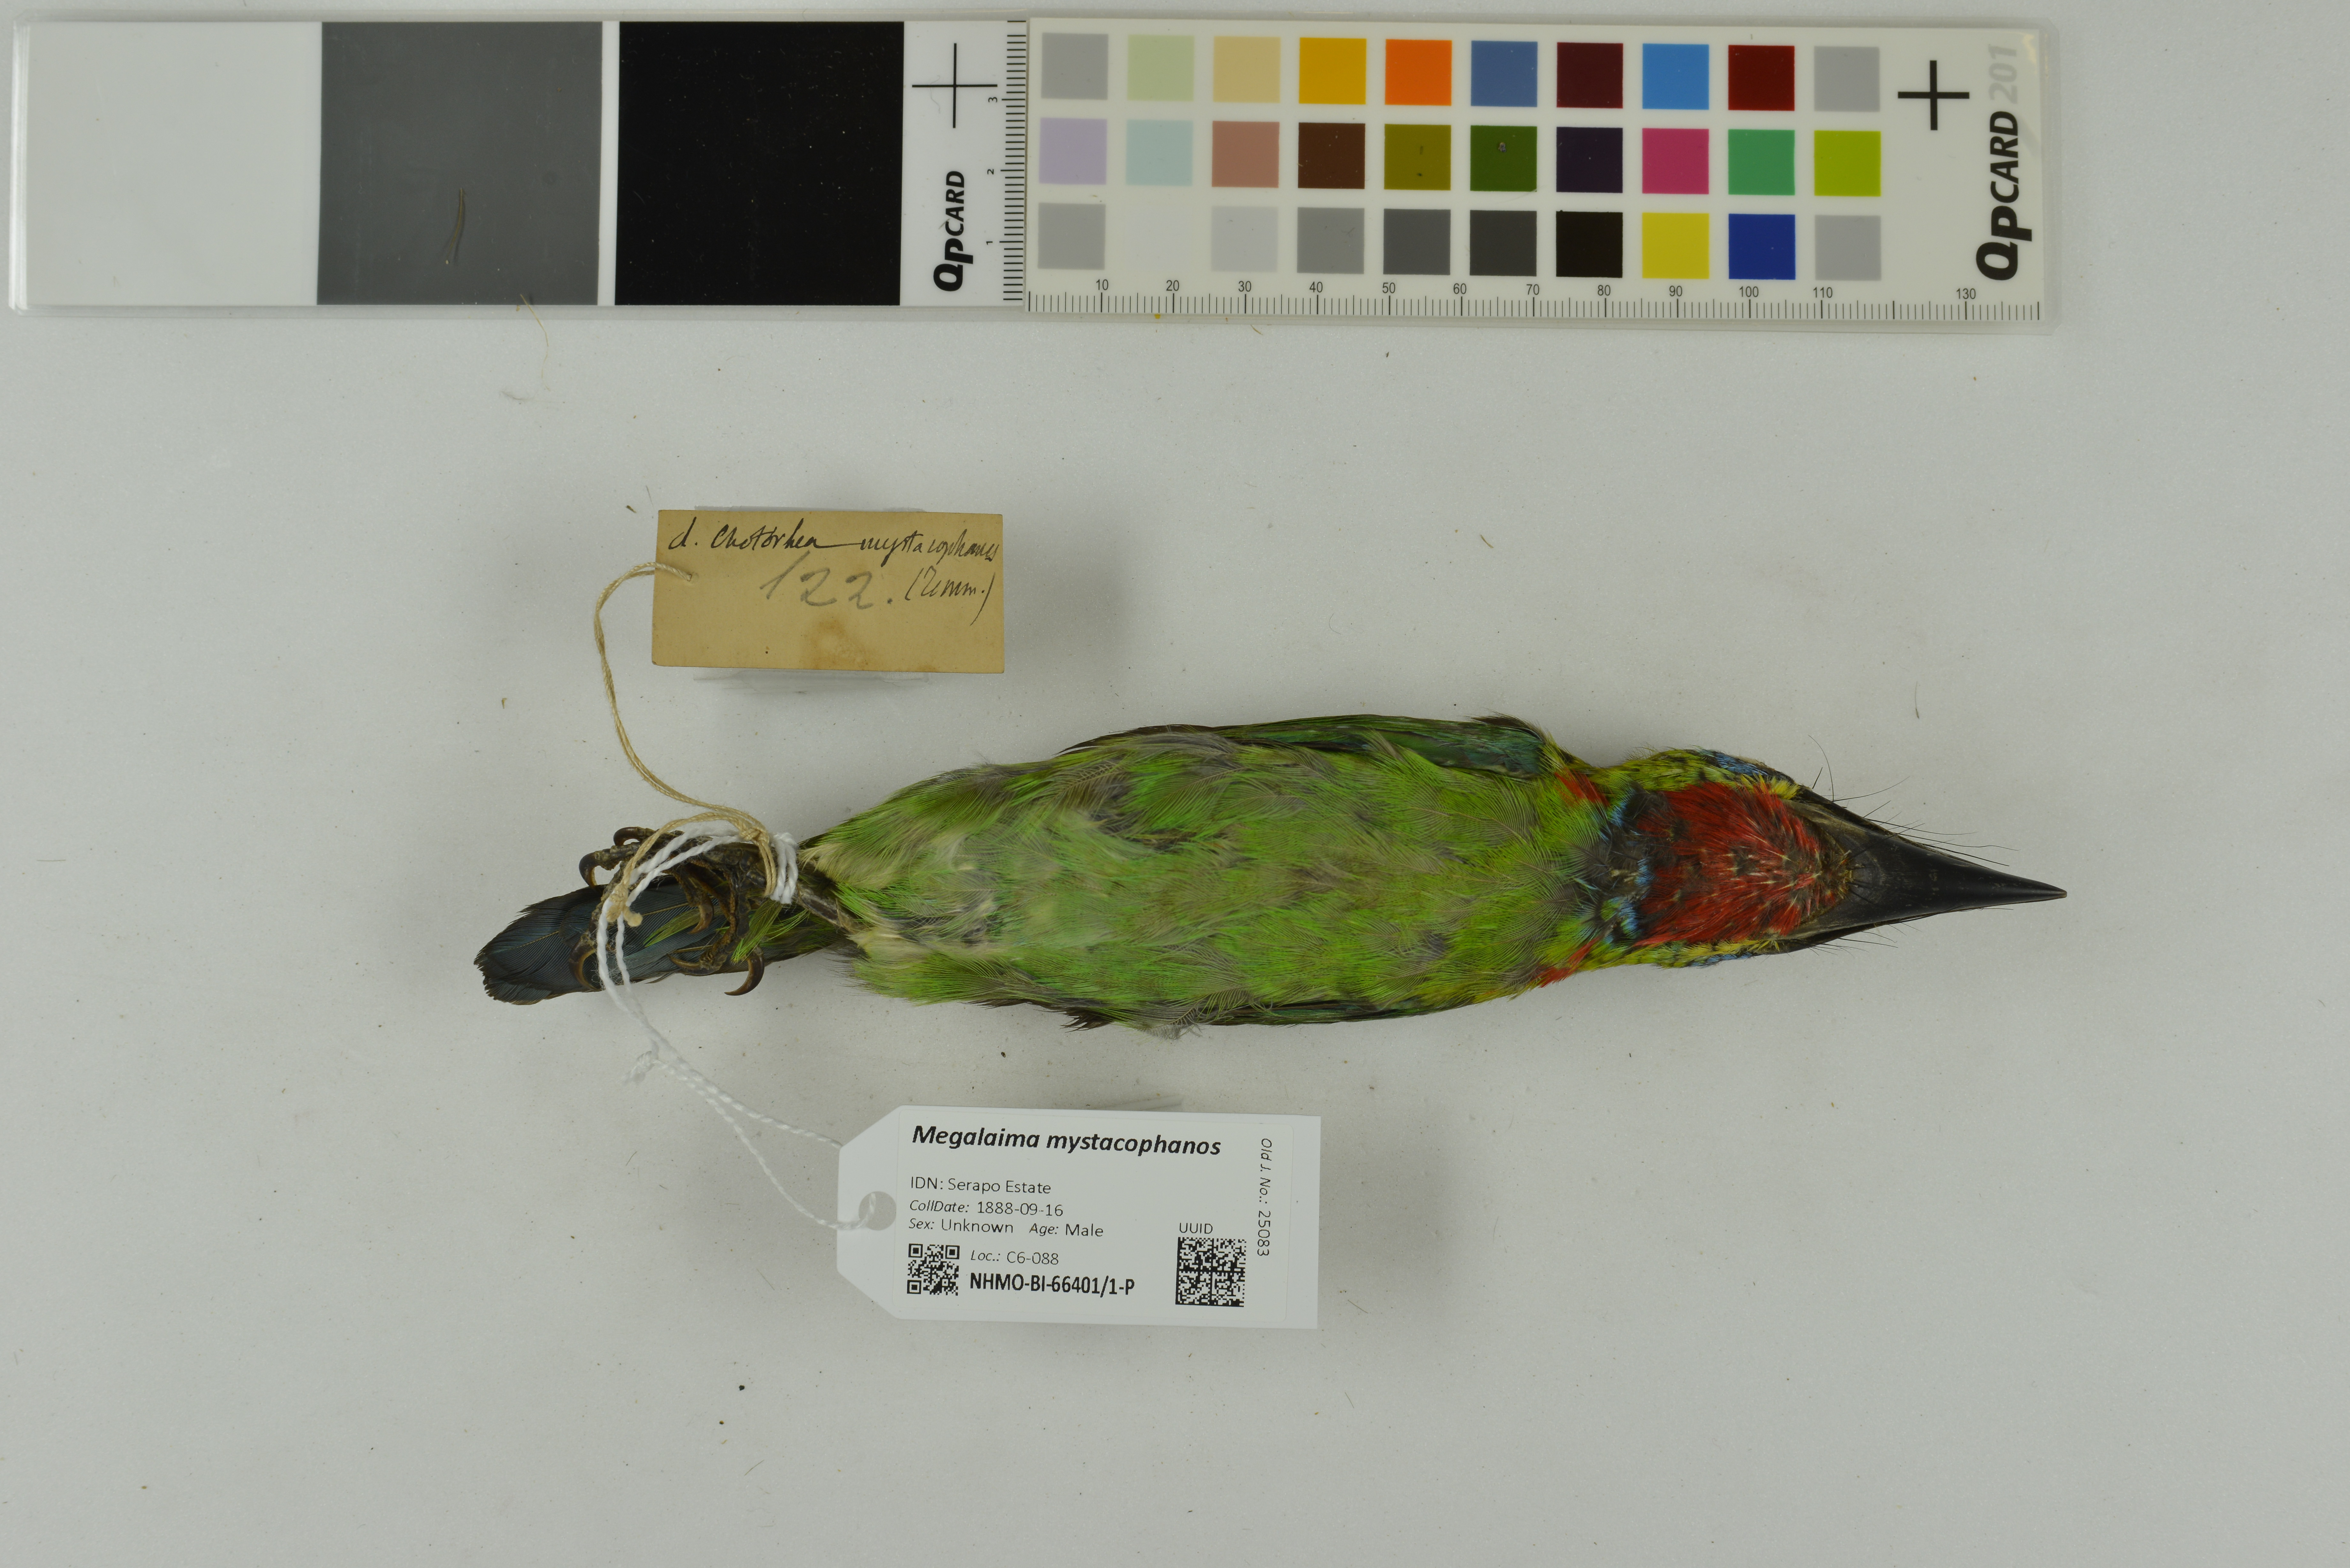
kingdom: Animalia
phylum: Chordata
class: Aves
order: Piciformes
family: Megalaimidae
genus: Psilopogon
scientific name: Psilopogon mystacophanos
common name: Red-throated barbet
